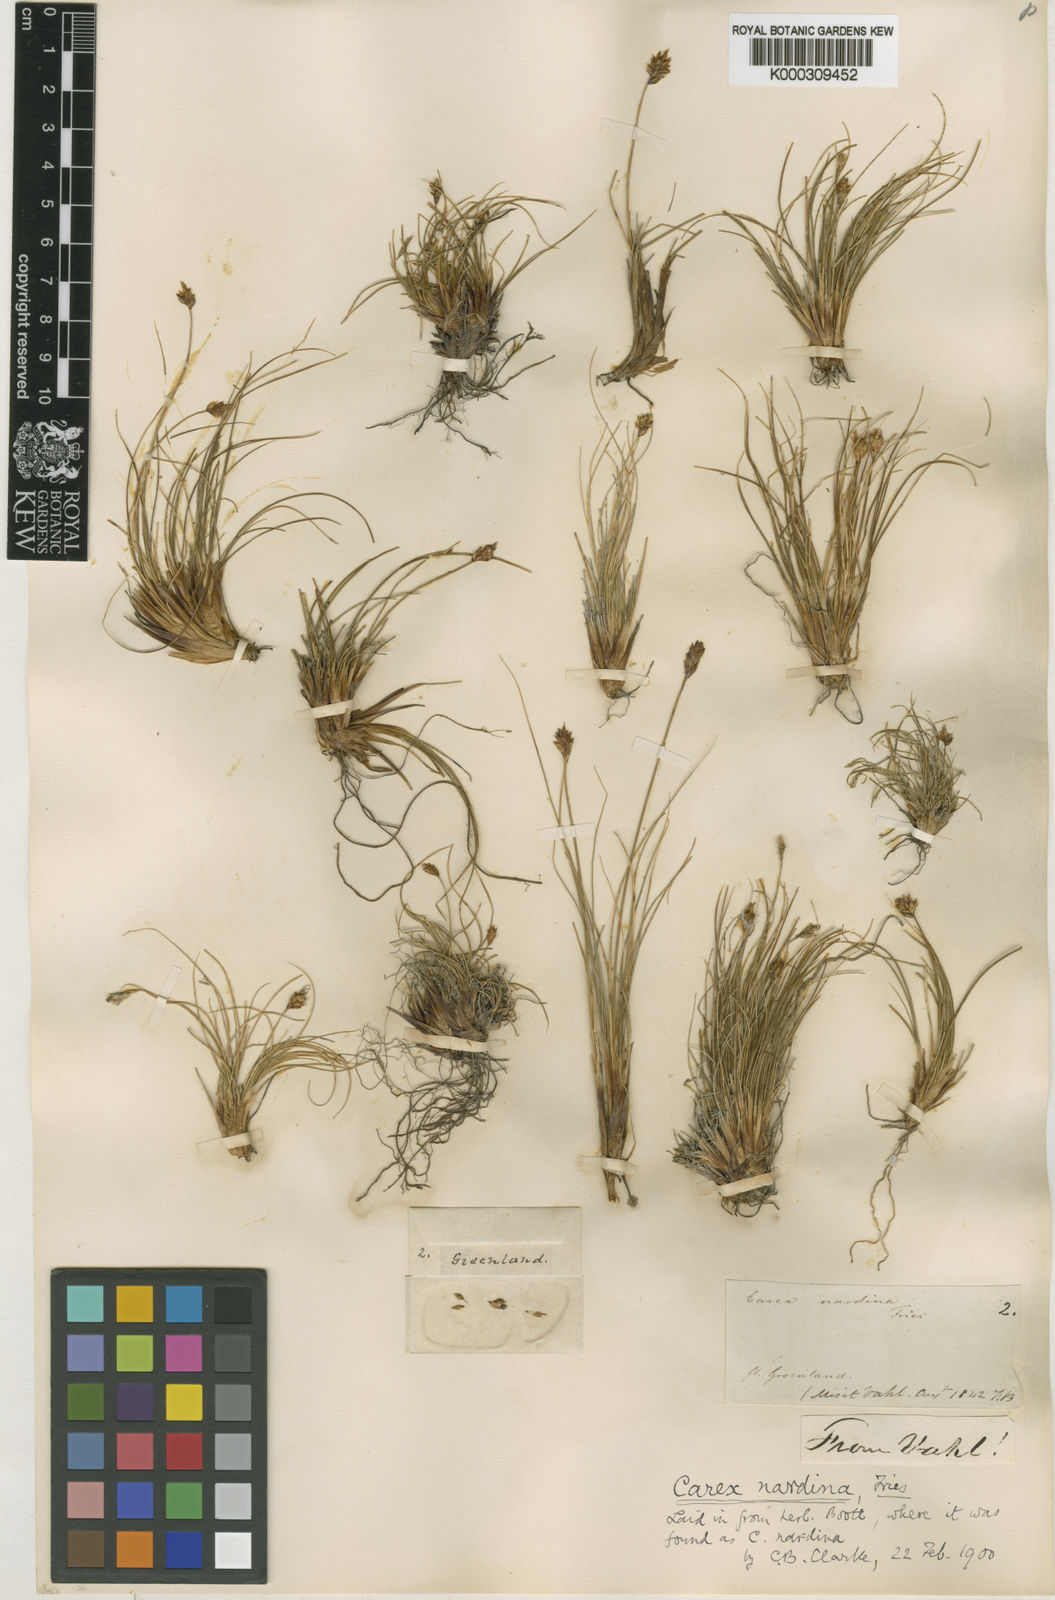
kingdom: Plantae
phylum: Tracheophyta
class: Liliopsida
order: Poales
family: Cyperaceae
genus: Carex
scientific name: Carex nardina
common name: Nard sedge
